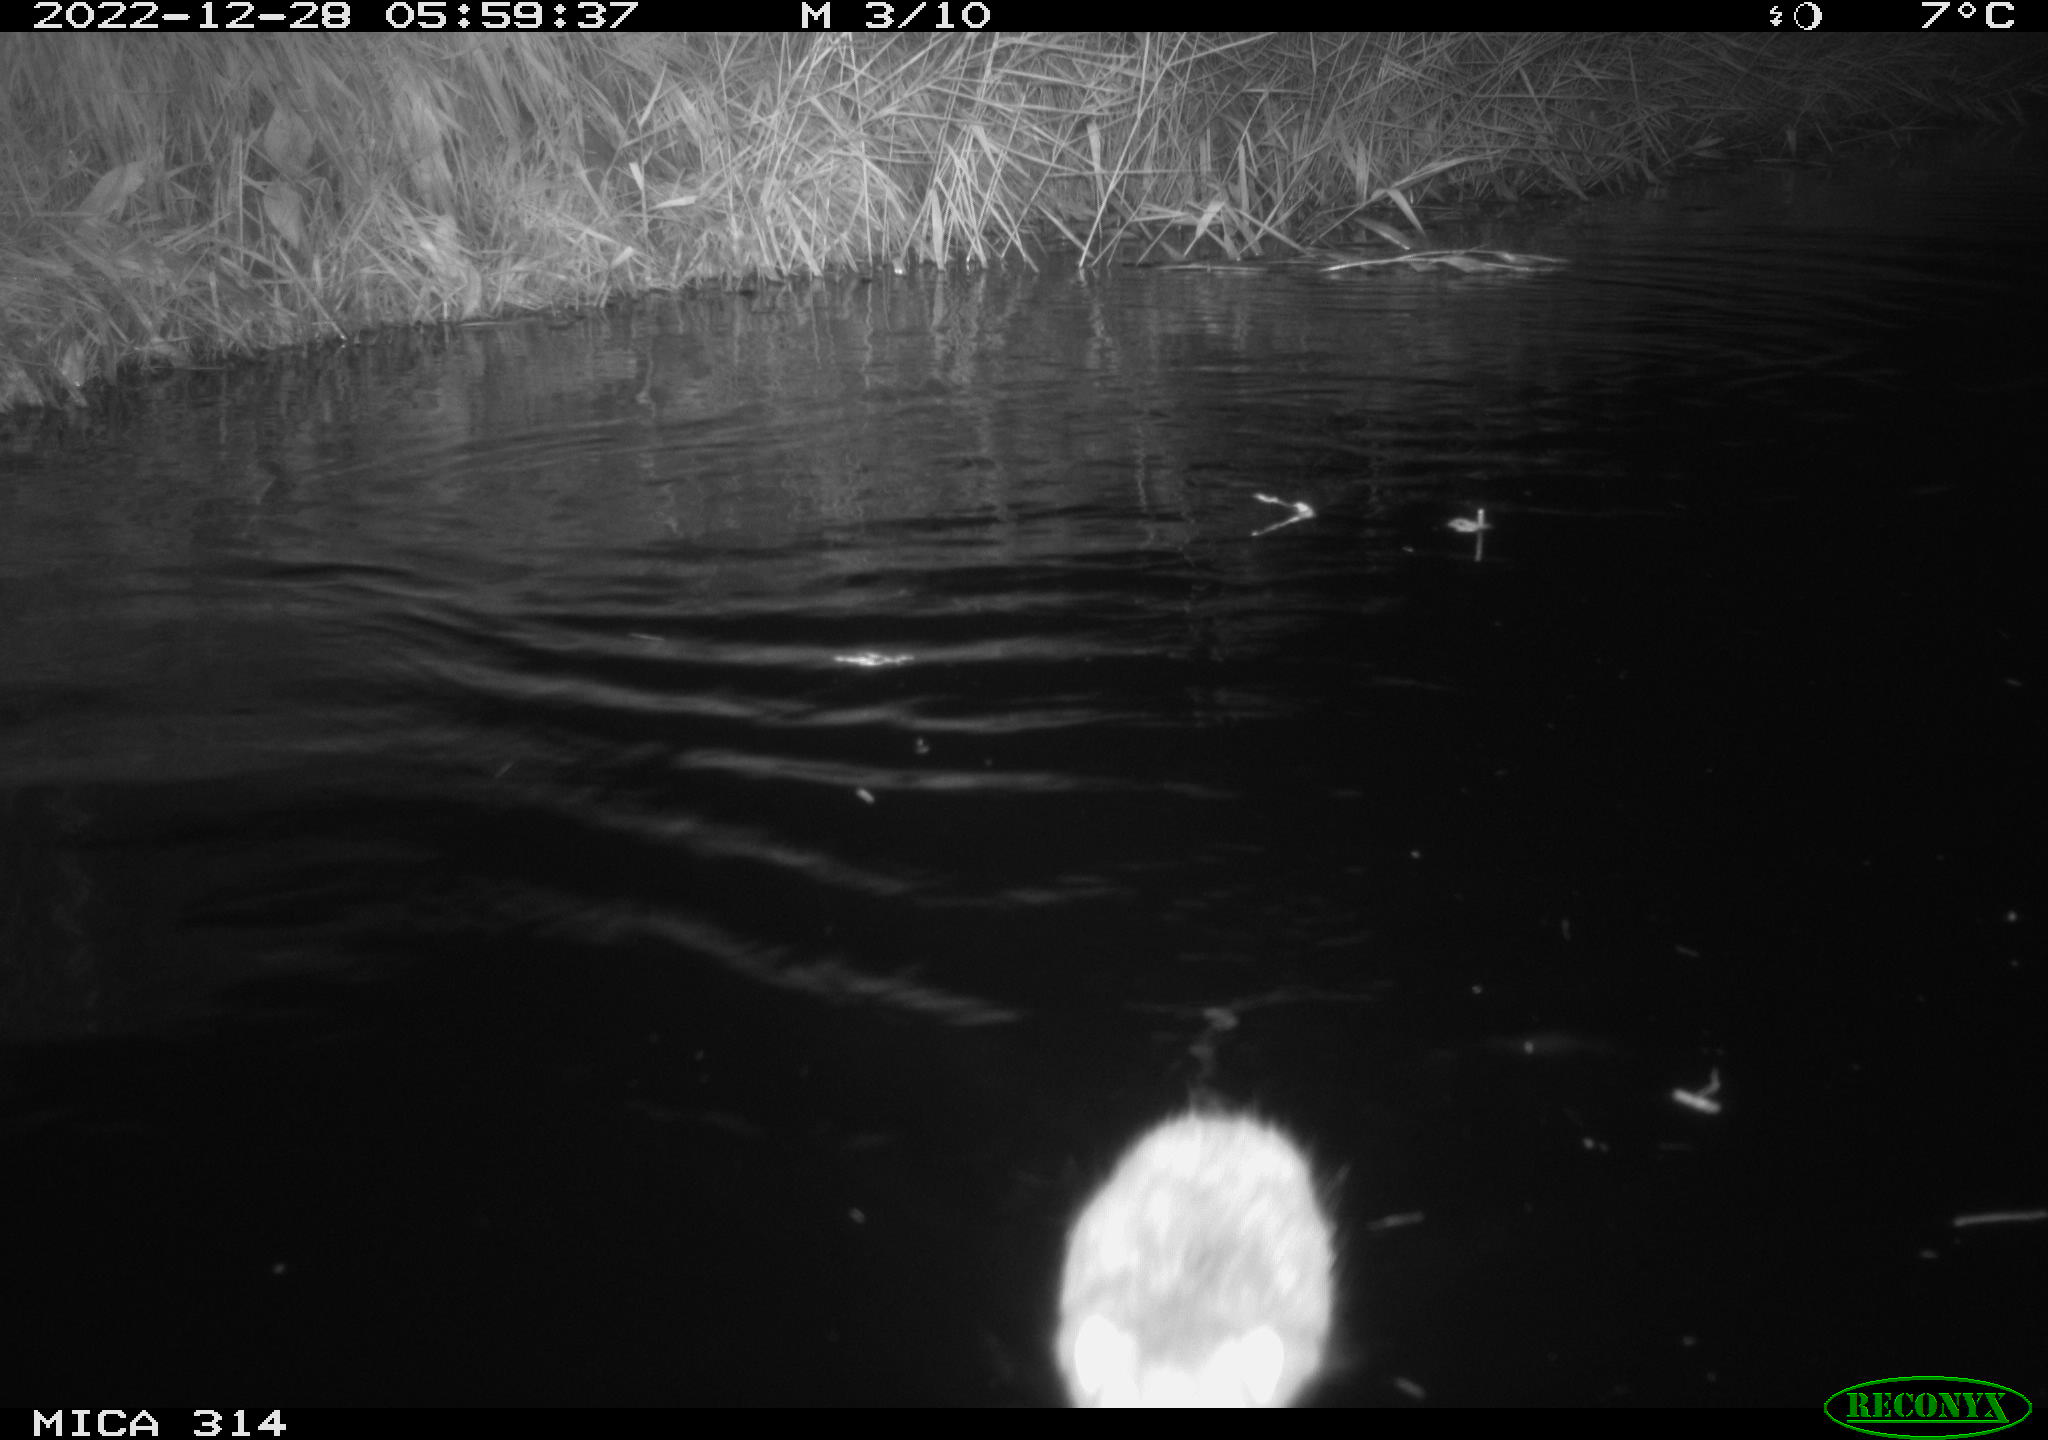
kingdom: Animalia
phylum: Chordata
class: Mammalia
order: Rodentia
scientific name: Rodentia
